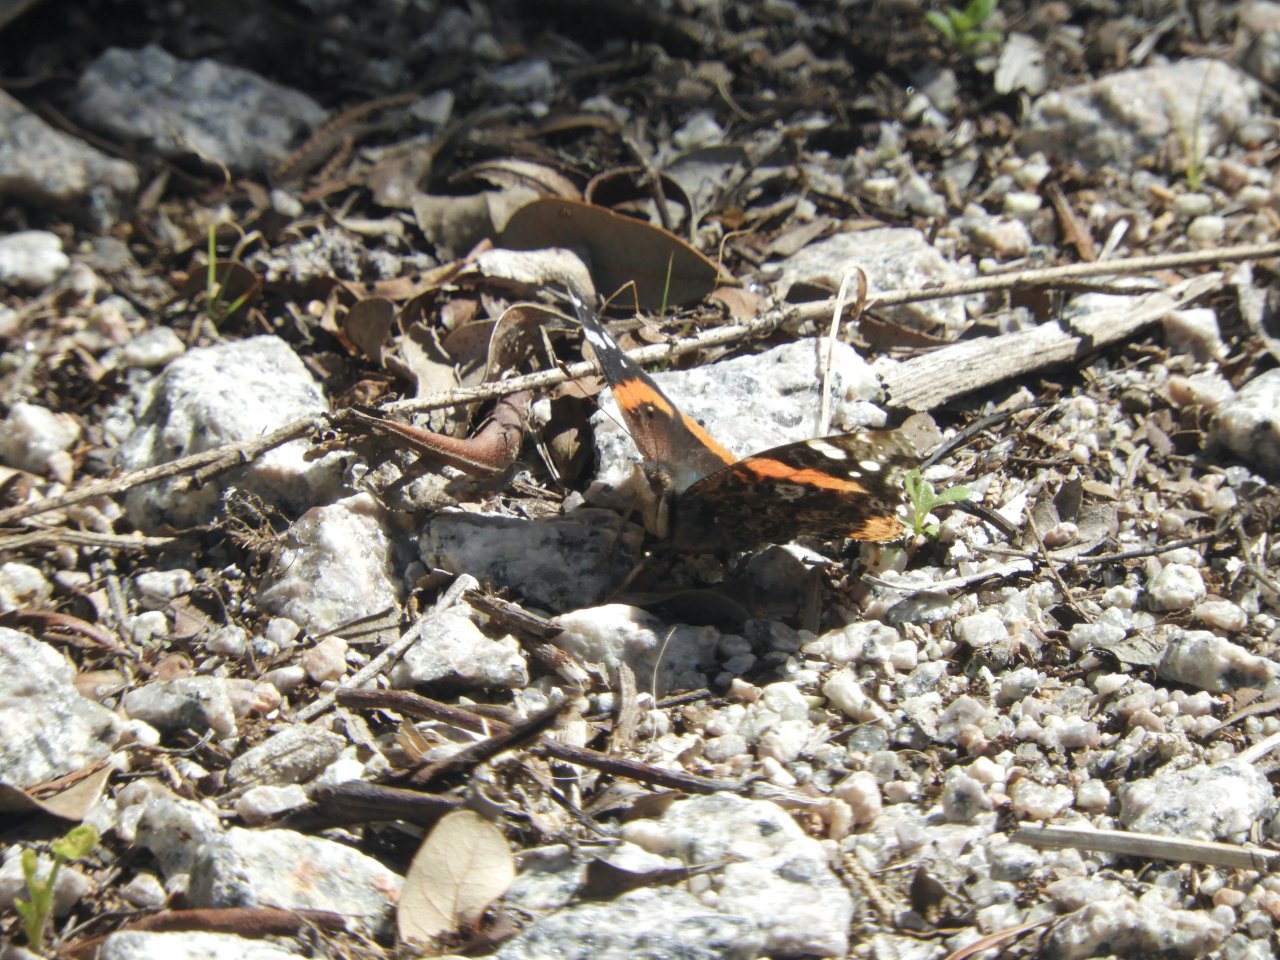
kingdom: Animalia
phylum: Arthropoda
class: Insecta
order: Lepidoptera
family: Nymphalidae
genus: Vanessa
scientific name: Vanessa atalanta
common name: Red Admiral
